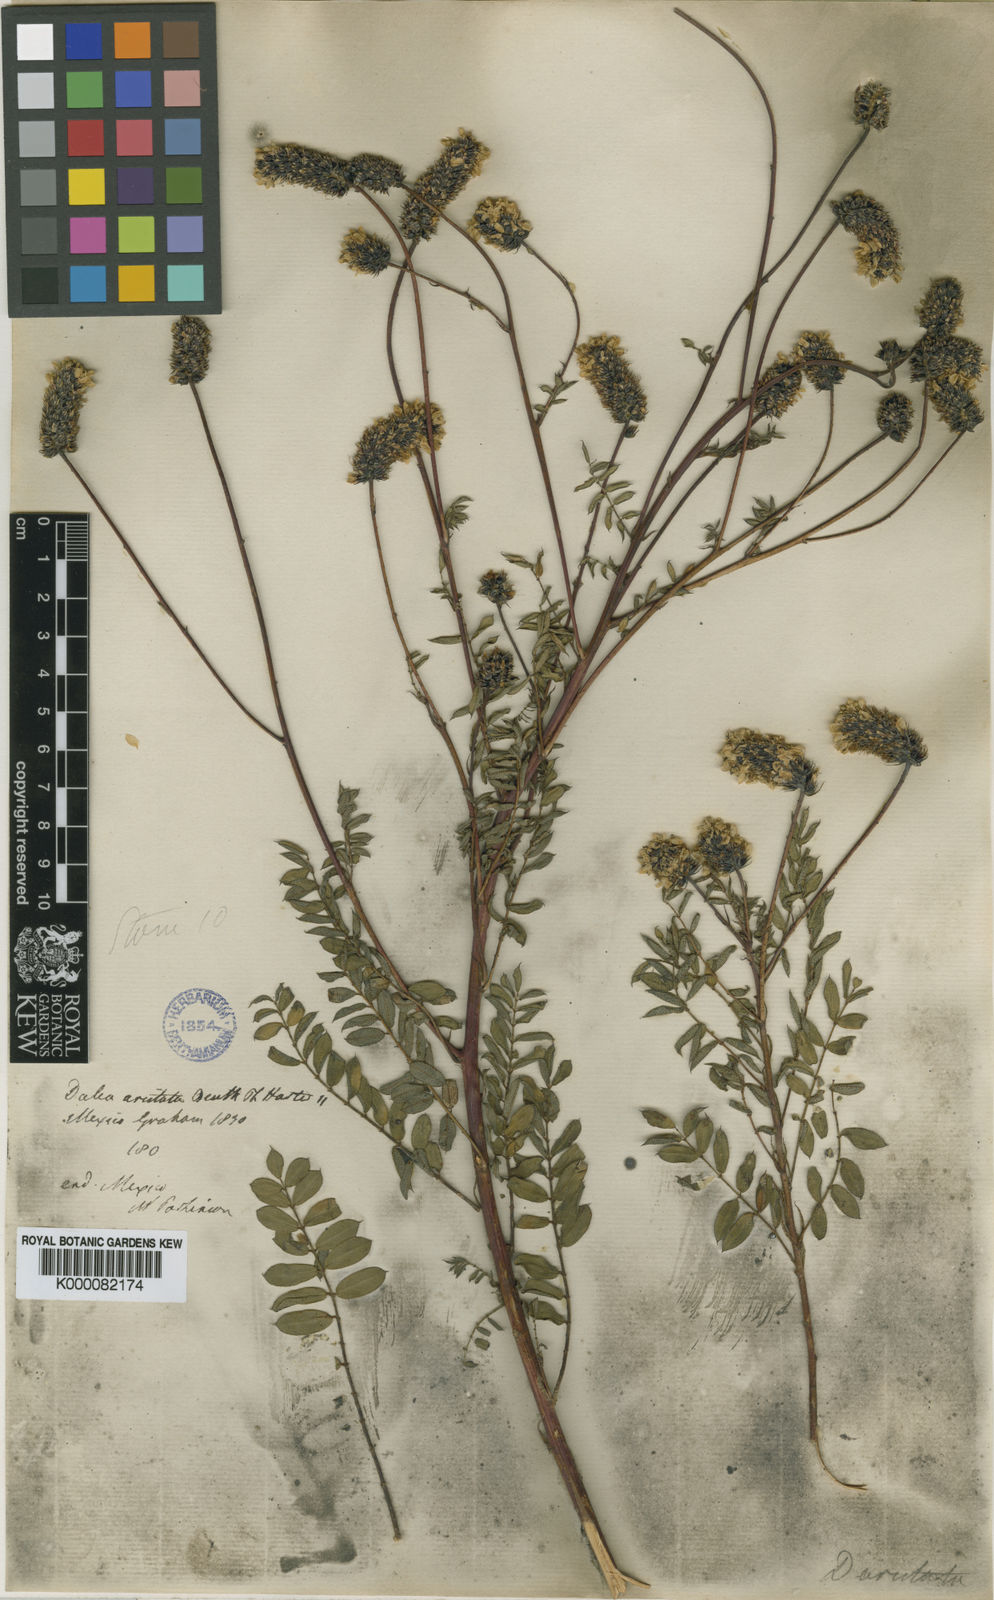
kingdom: Plantae
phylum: Tracheophyta
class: Magnoliopsida
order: Fabales
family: Fabaceae
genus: Dalea
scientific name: Dalea mucronata
